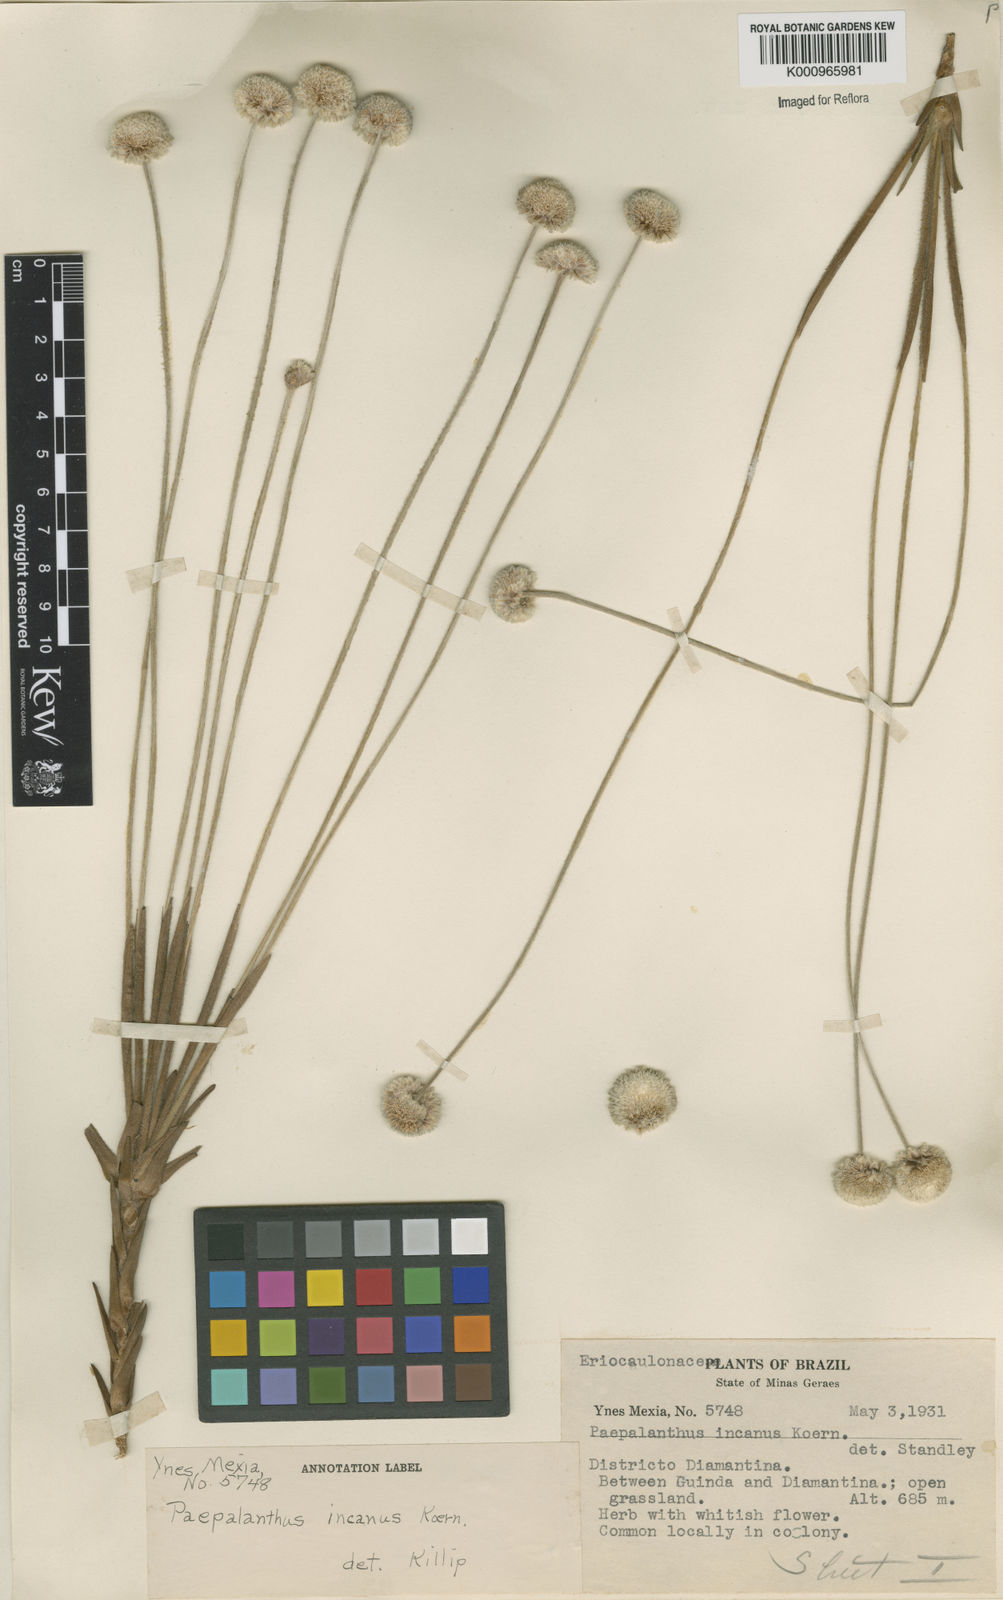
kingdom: Plantae
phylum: Tracheophyta
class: Liliopsida
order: Poales
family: Eriocaulaceae
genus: Paepalanthus
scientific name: Paepalanthus
